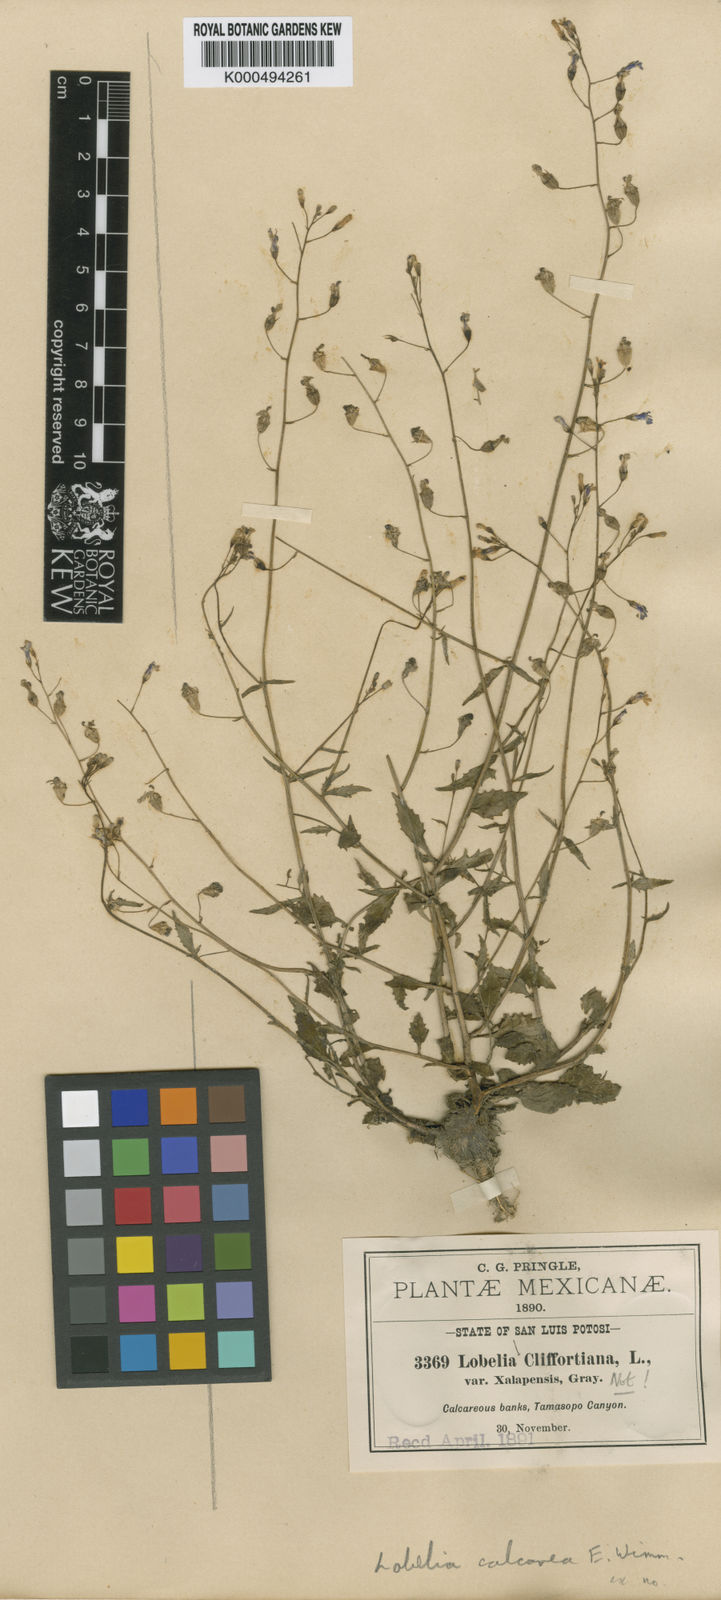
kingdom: Plantae
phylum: Tracheophyta
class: Magnoliopsida
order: Asterales
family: Campanulaceae
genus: Lobelia
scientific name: Lobelia berlandieri
